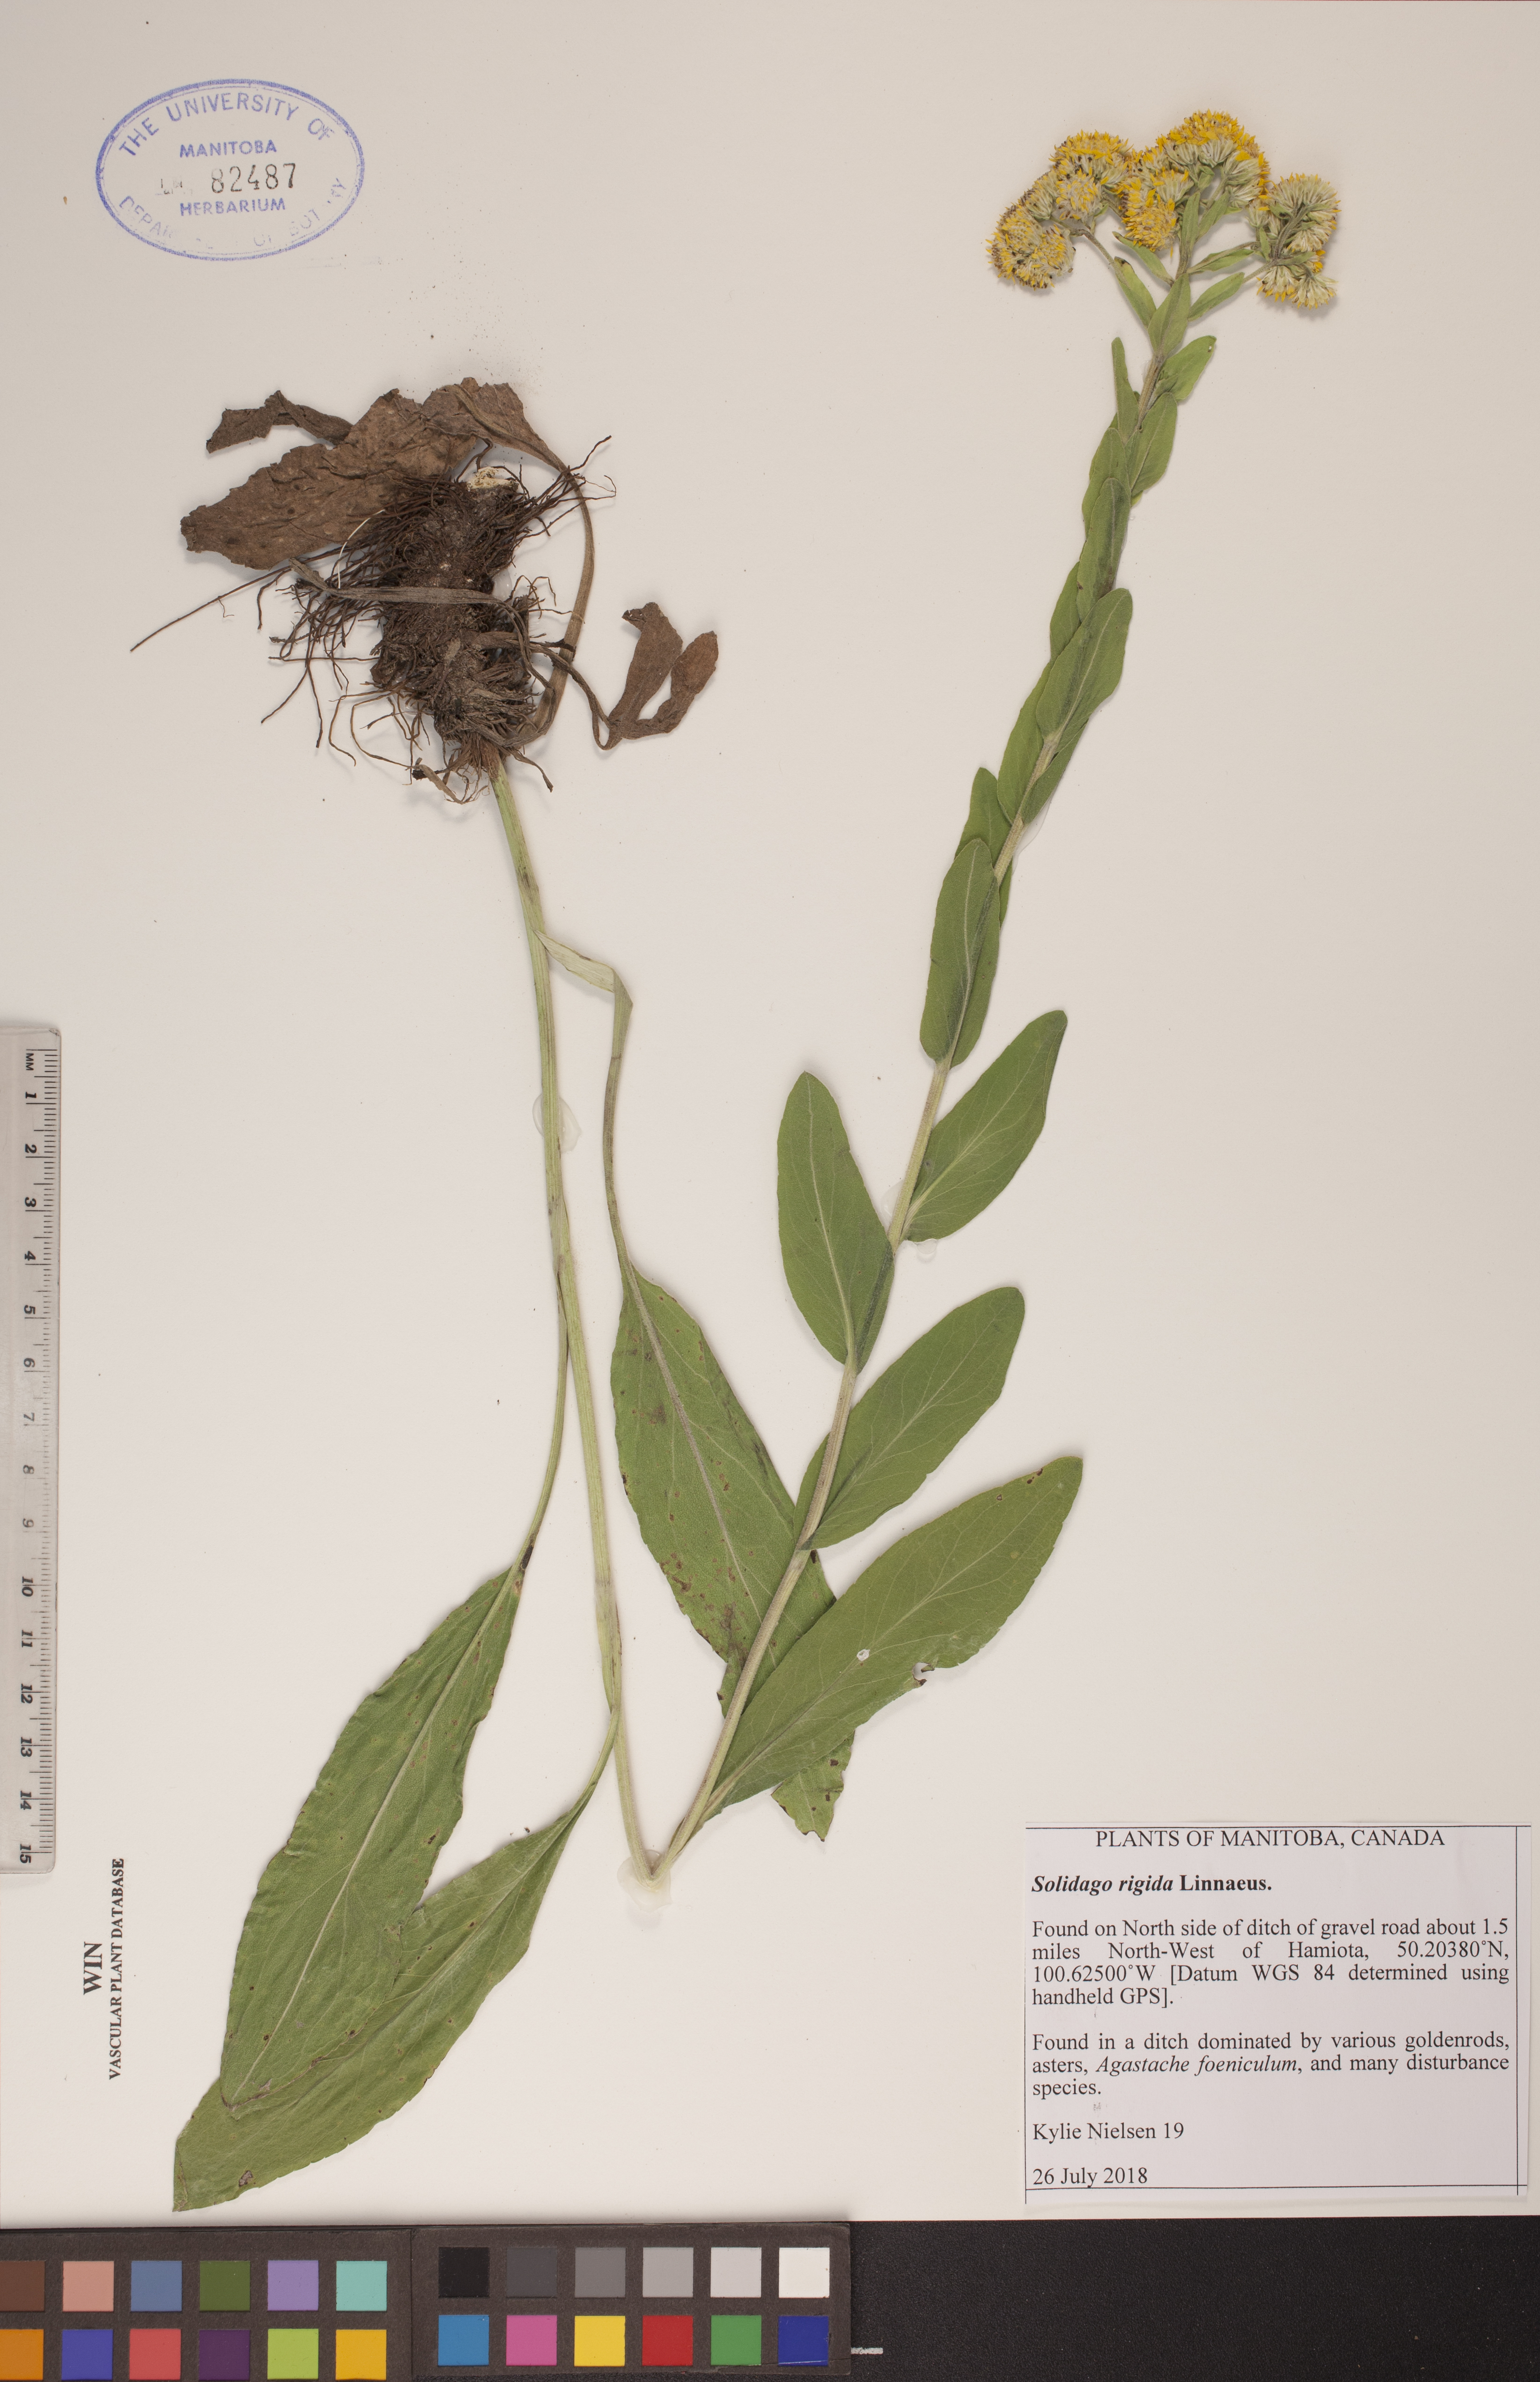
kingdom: Plantae
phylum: Tracheophyta
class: Magnoliopsida
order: Asterales
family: Asteraceae
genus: Solidago
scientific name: Solidago rigida
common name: Rigid goldenrod
